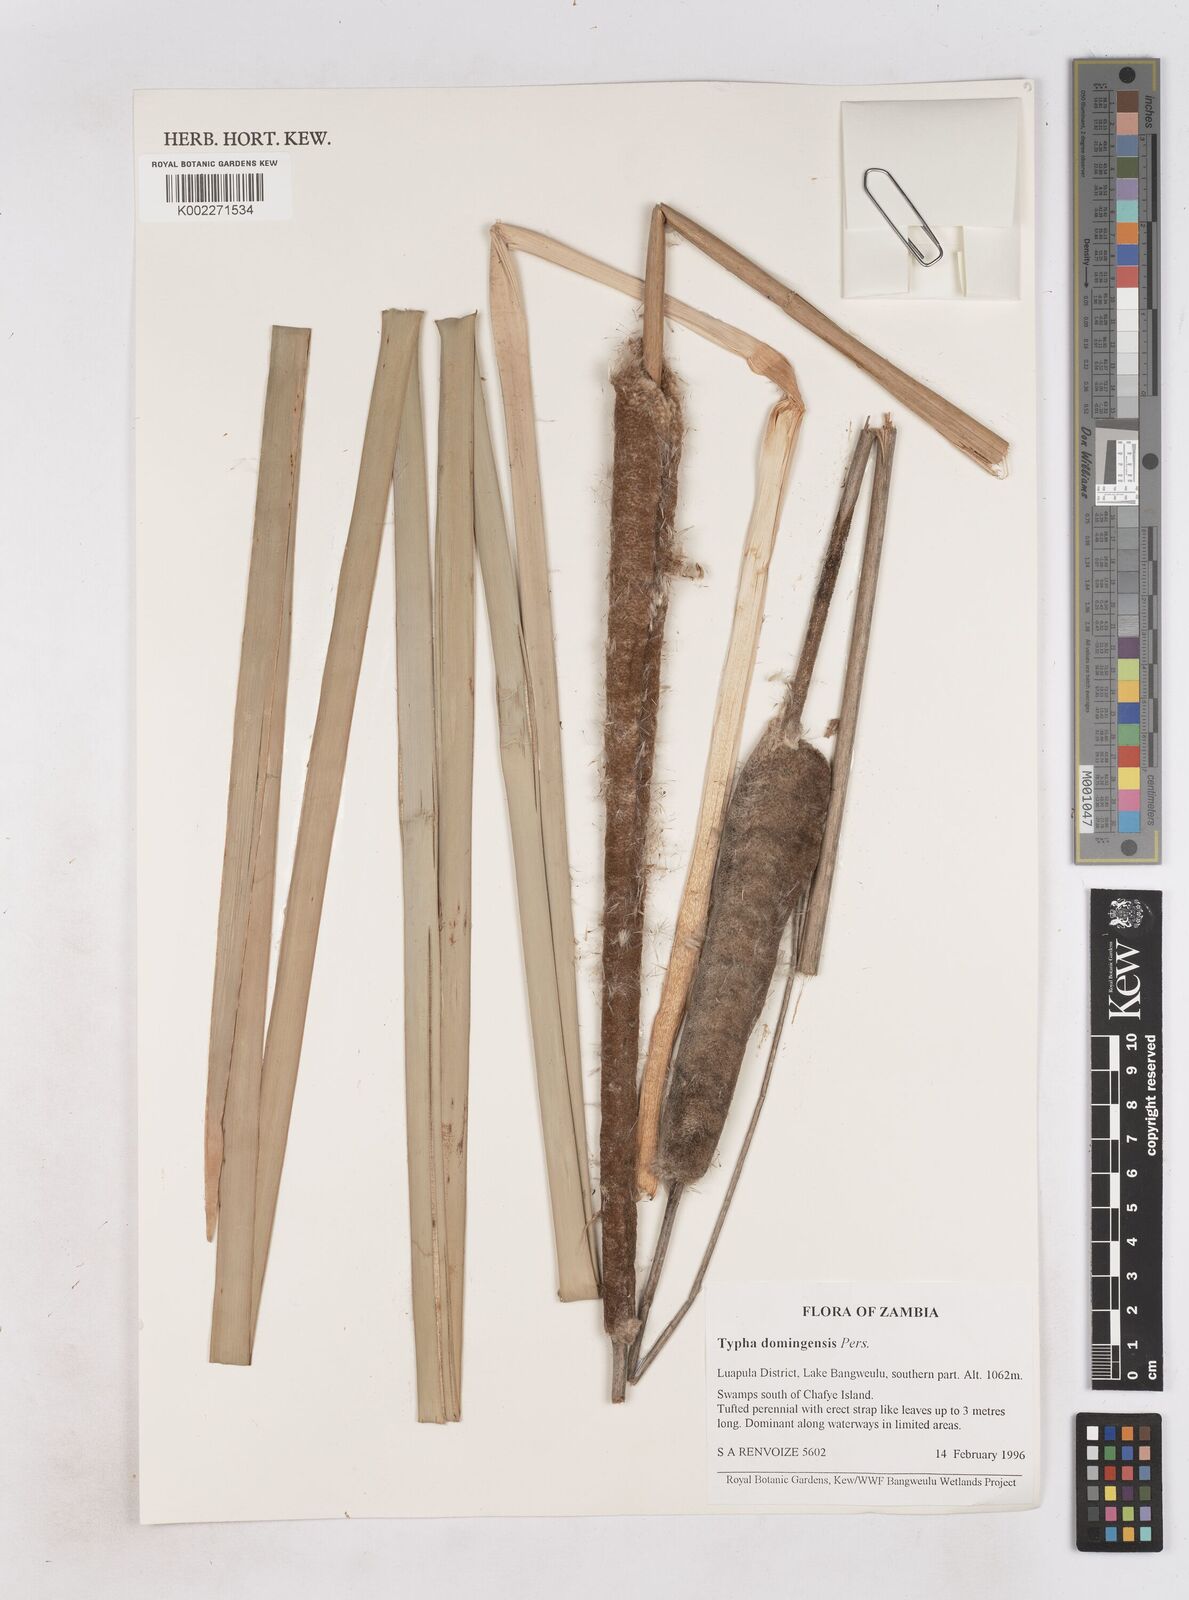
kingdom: Plantae
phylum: Tracheophyta
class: Liliopsida
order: Poales
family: Typhaceae
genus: Typha
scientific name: Typha domingensis
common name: Southern cattail
